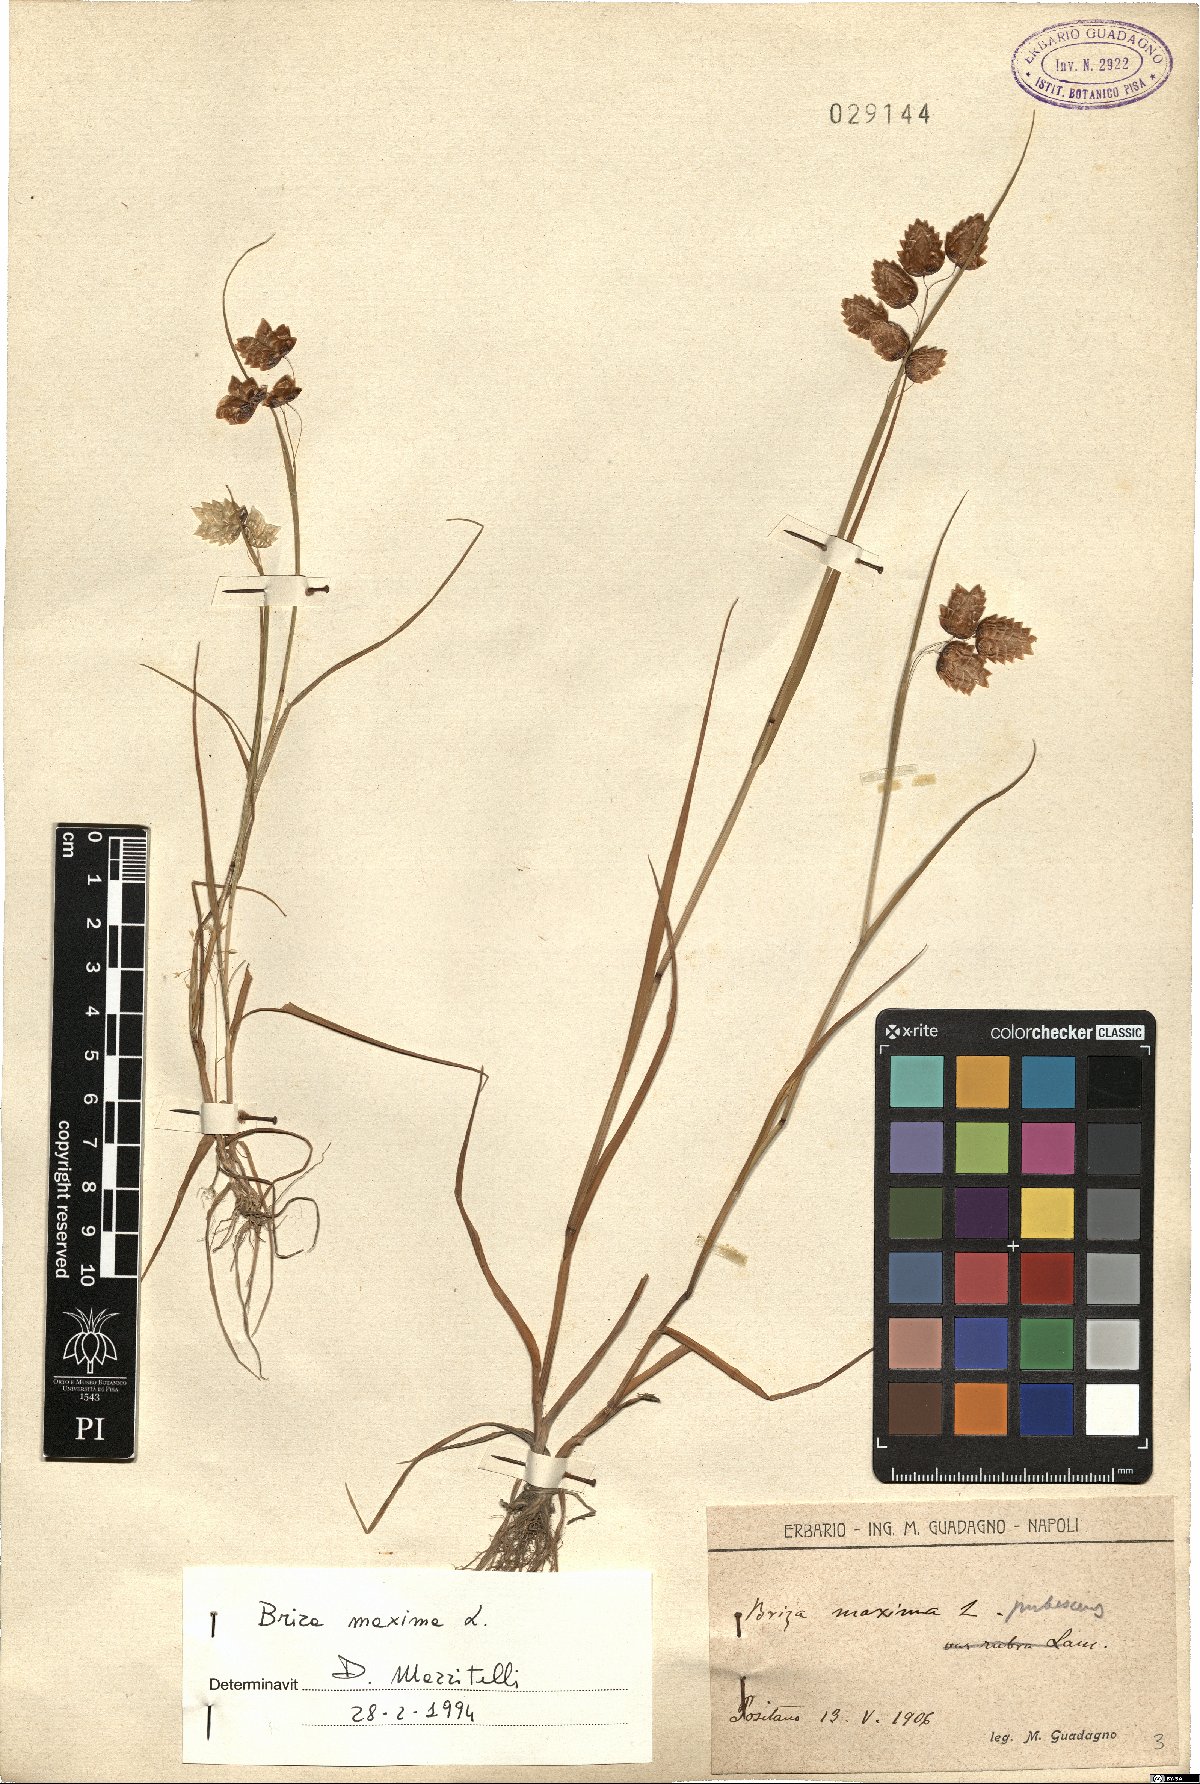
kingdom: Plantae
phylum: Tracheophyta
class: Liliopsida
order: Poales
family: Poaceae
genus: Briza
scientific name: Briza maxima
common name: Big quakinggrass
